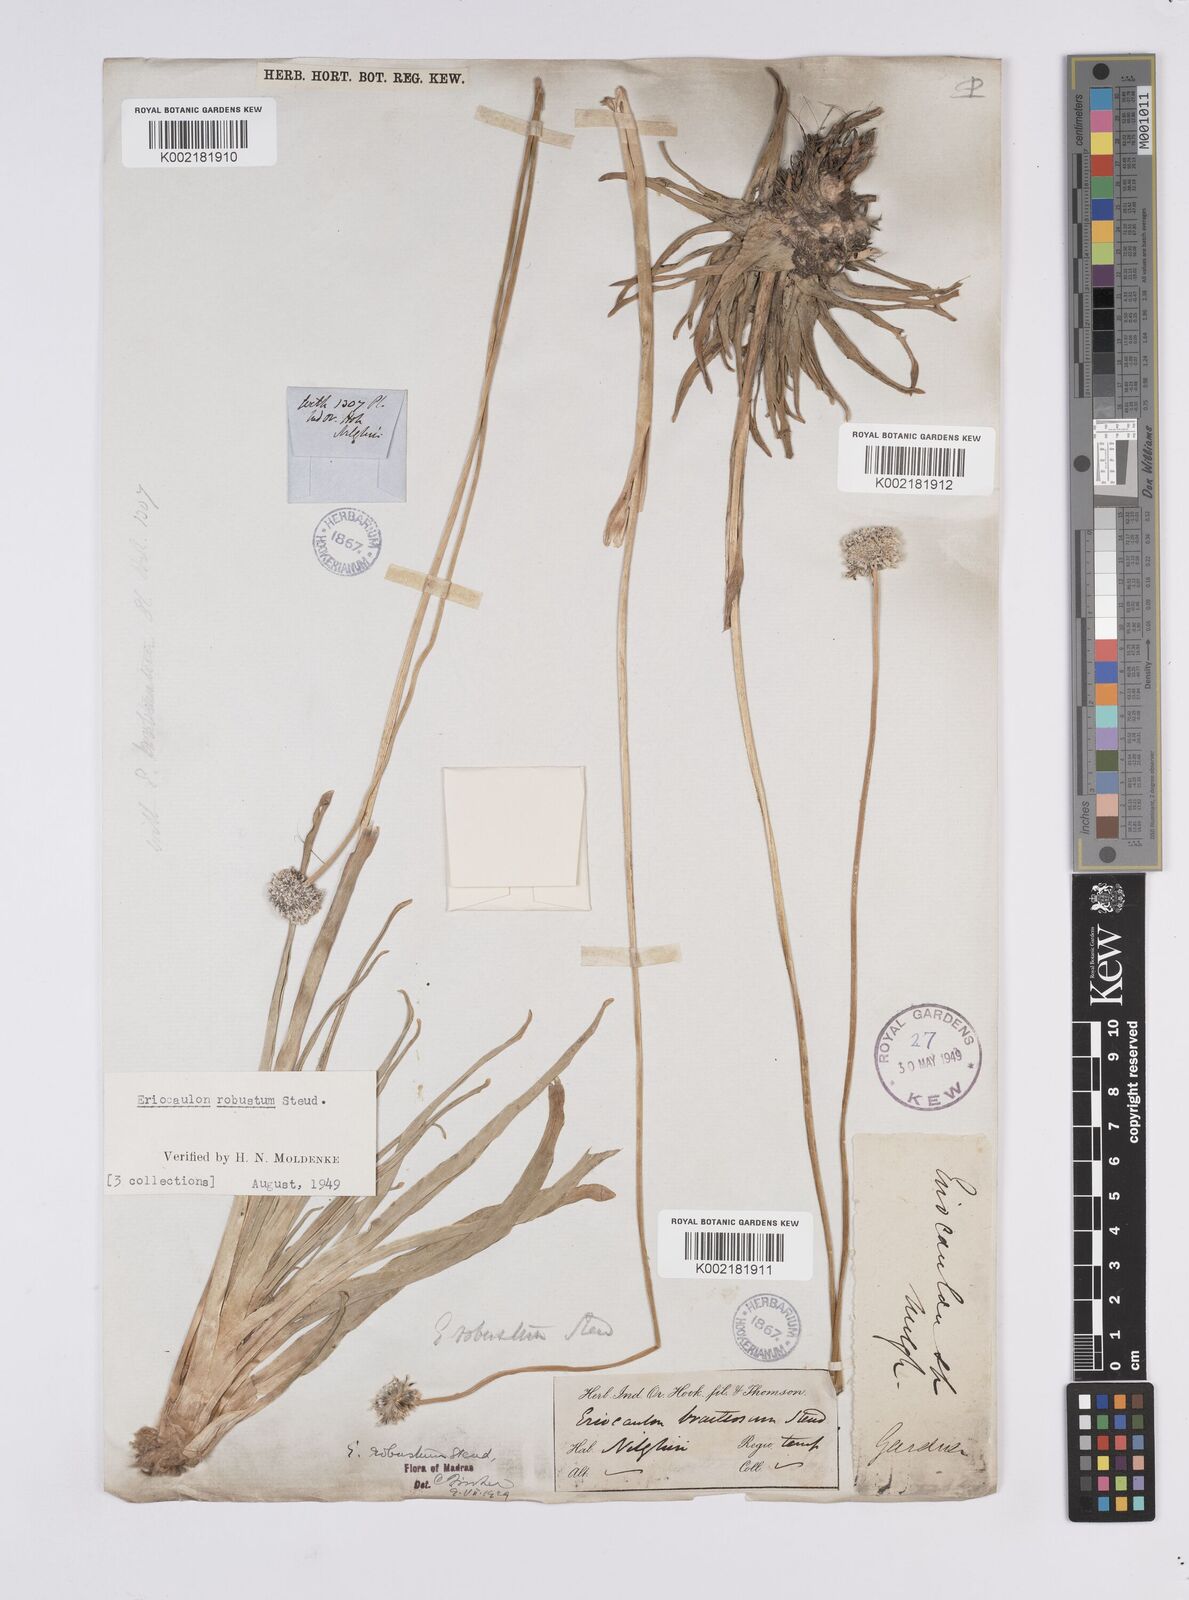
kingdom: Plantae
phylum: Tracheophyta
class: Liliopsida
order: Poales
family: Eriocaulaceae
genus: Eriocaulon
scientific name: Eriocaulon robustum
